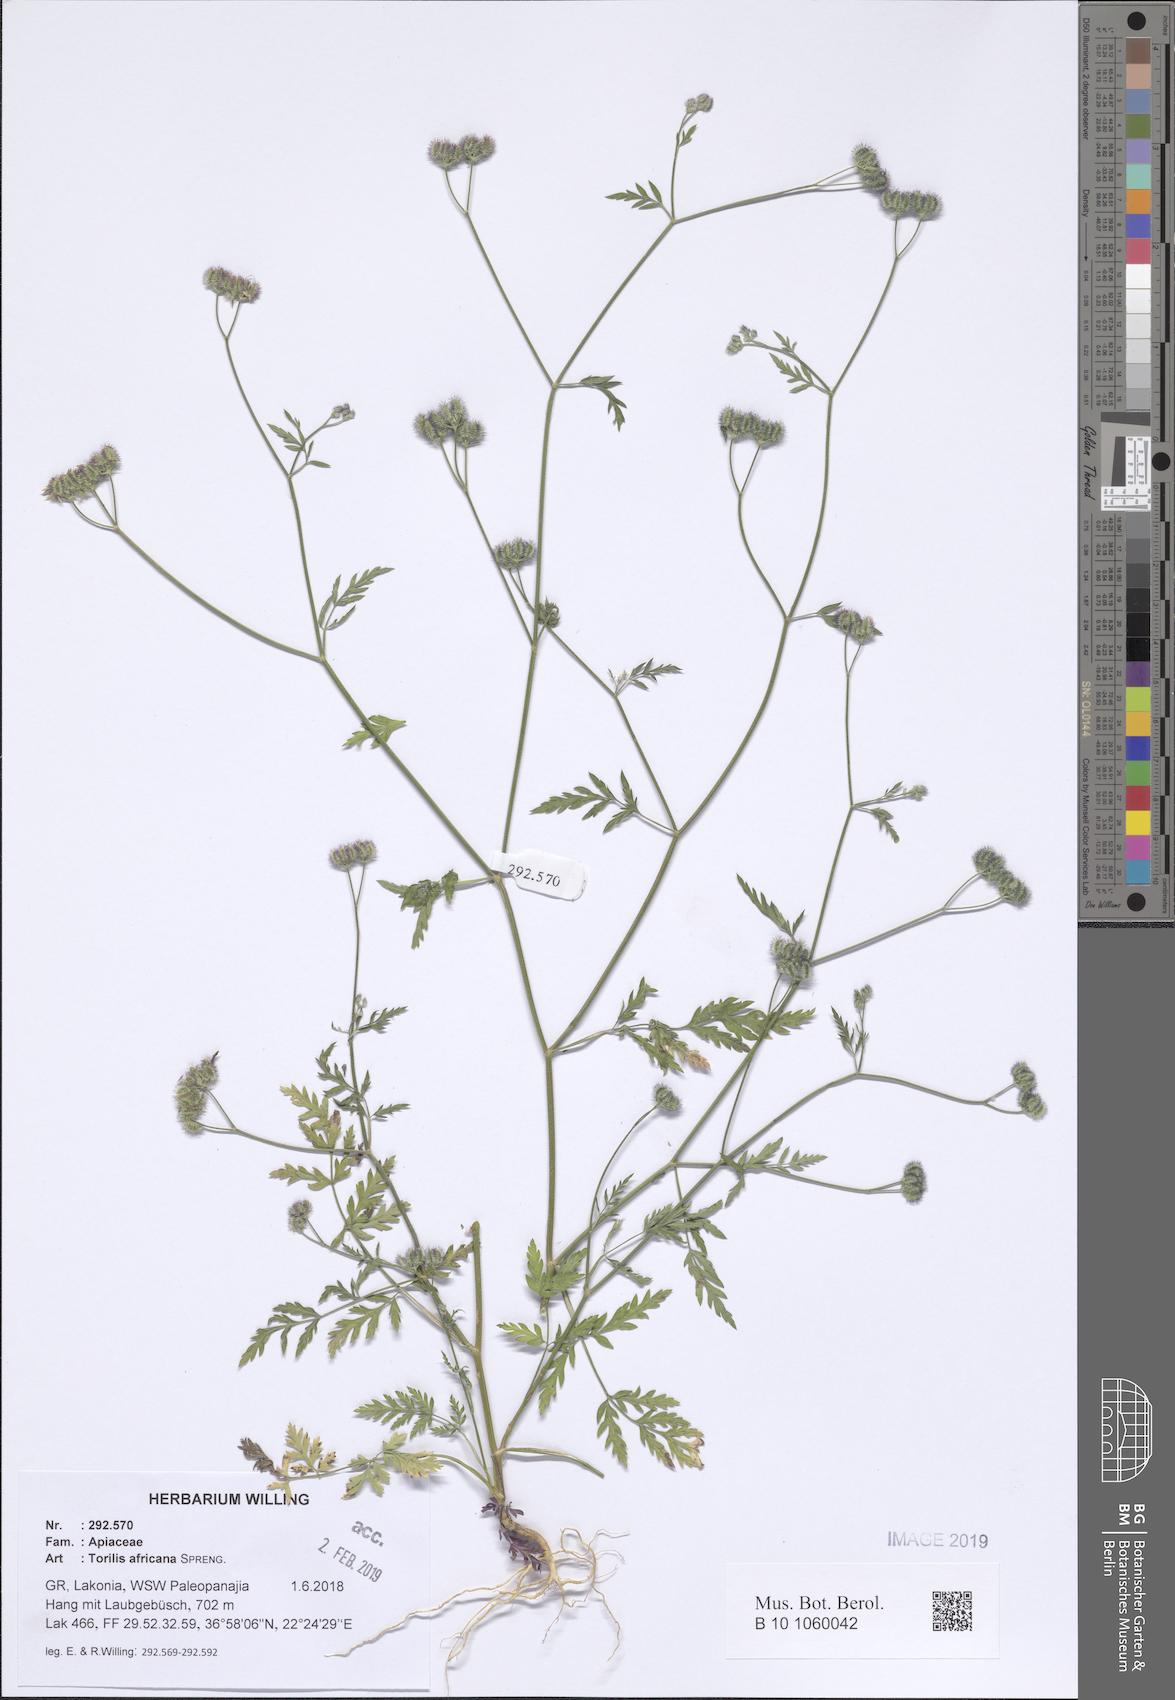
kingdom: Plantae
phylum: Tracheophyta
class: Magnoliopsida
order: Apiales
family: Apiaceae
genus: Torilis
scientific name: Torilis africana
